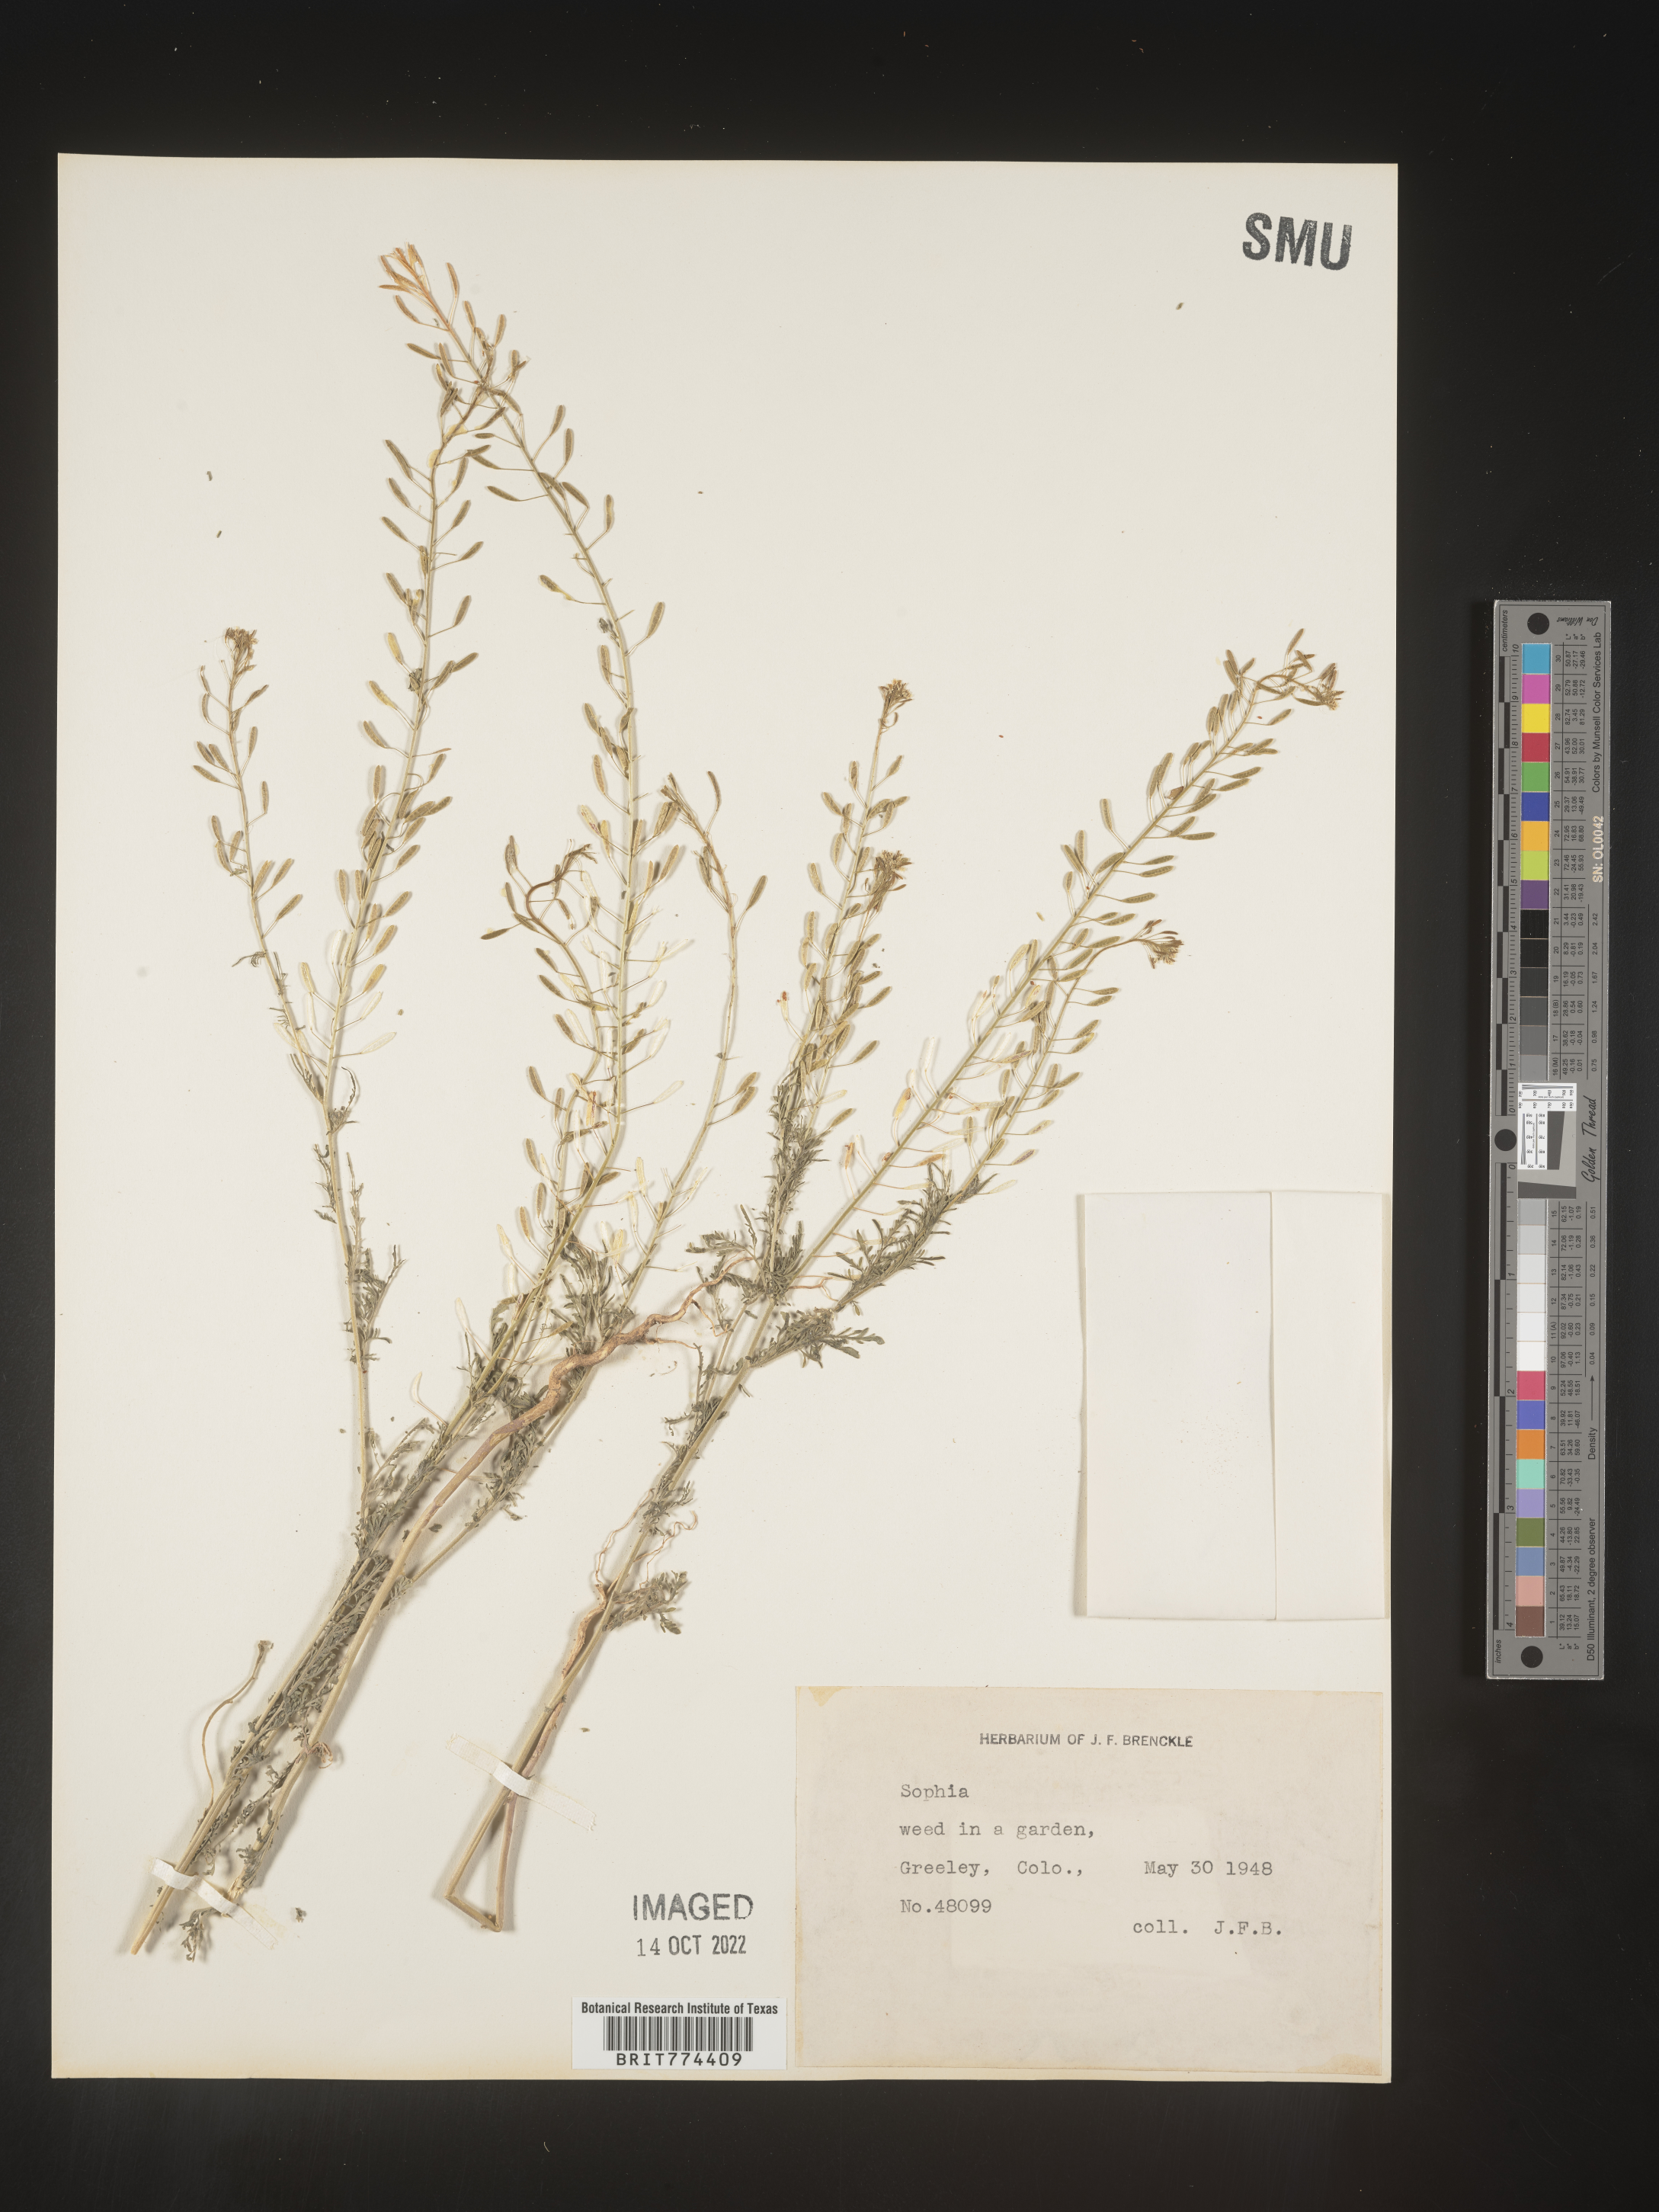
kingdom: Plantae
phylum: Tracheophyta
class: Magnoliopsida
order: Brassicales
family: Brassicaceae
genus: Descurainia
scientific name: Descurainia
